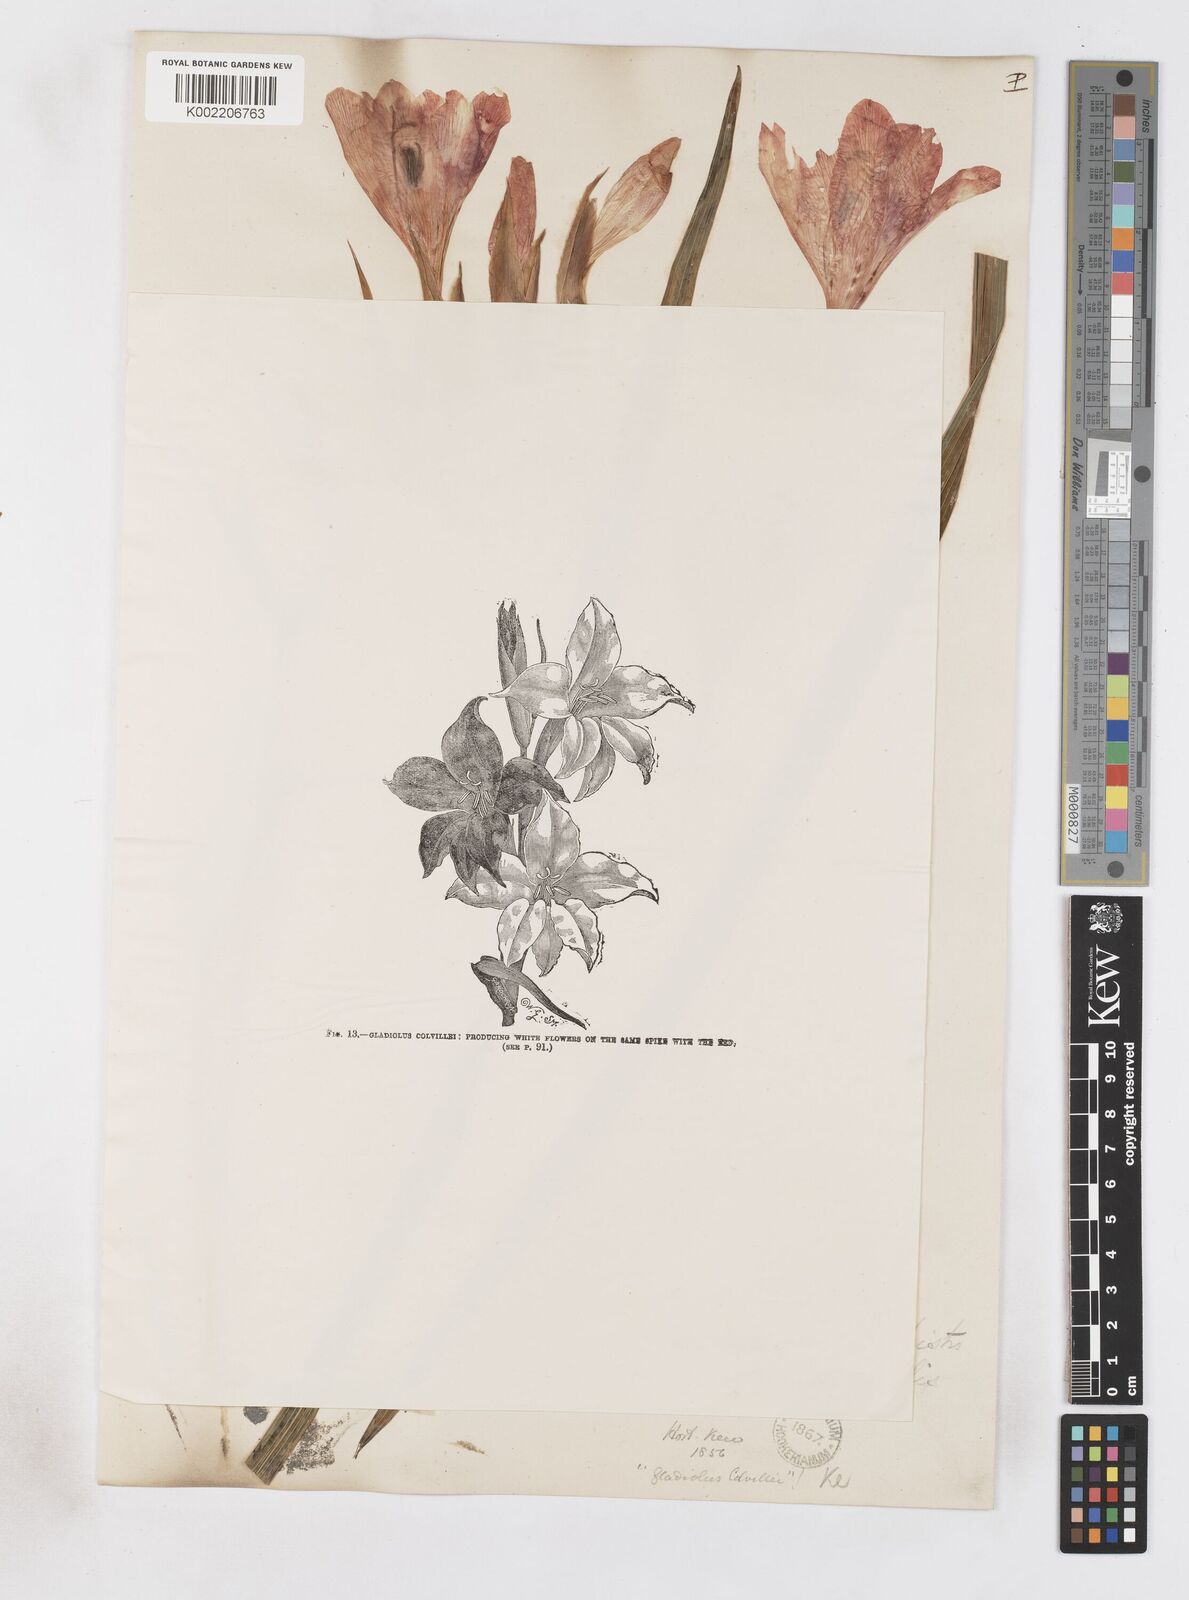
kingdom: Plantae
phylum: Tracheophyta
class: Liliopsida
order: Asparagales
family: Iridaceae
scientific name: Iridaceae
